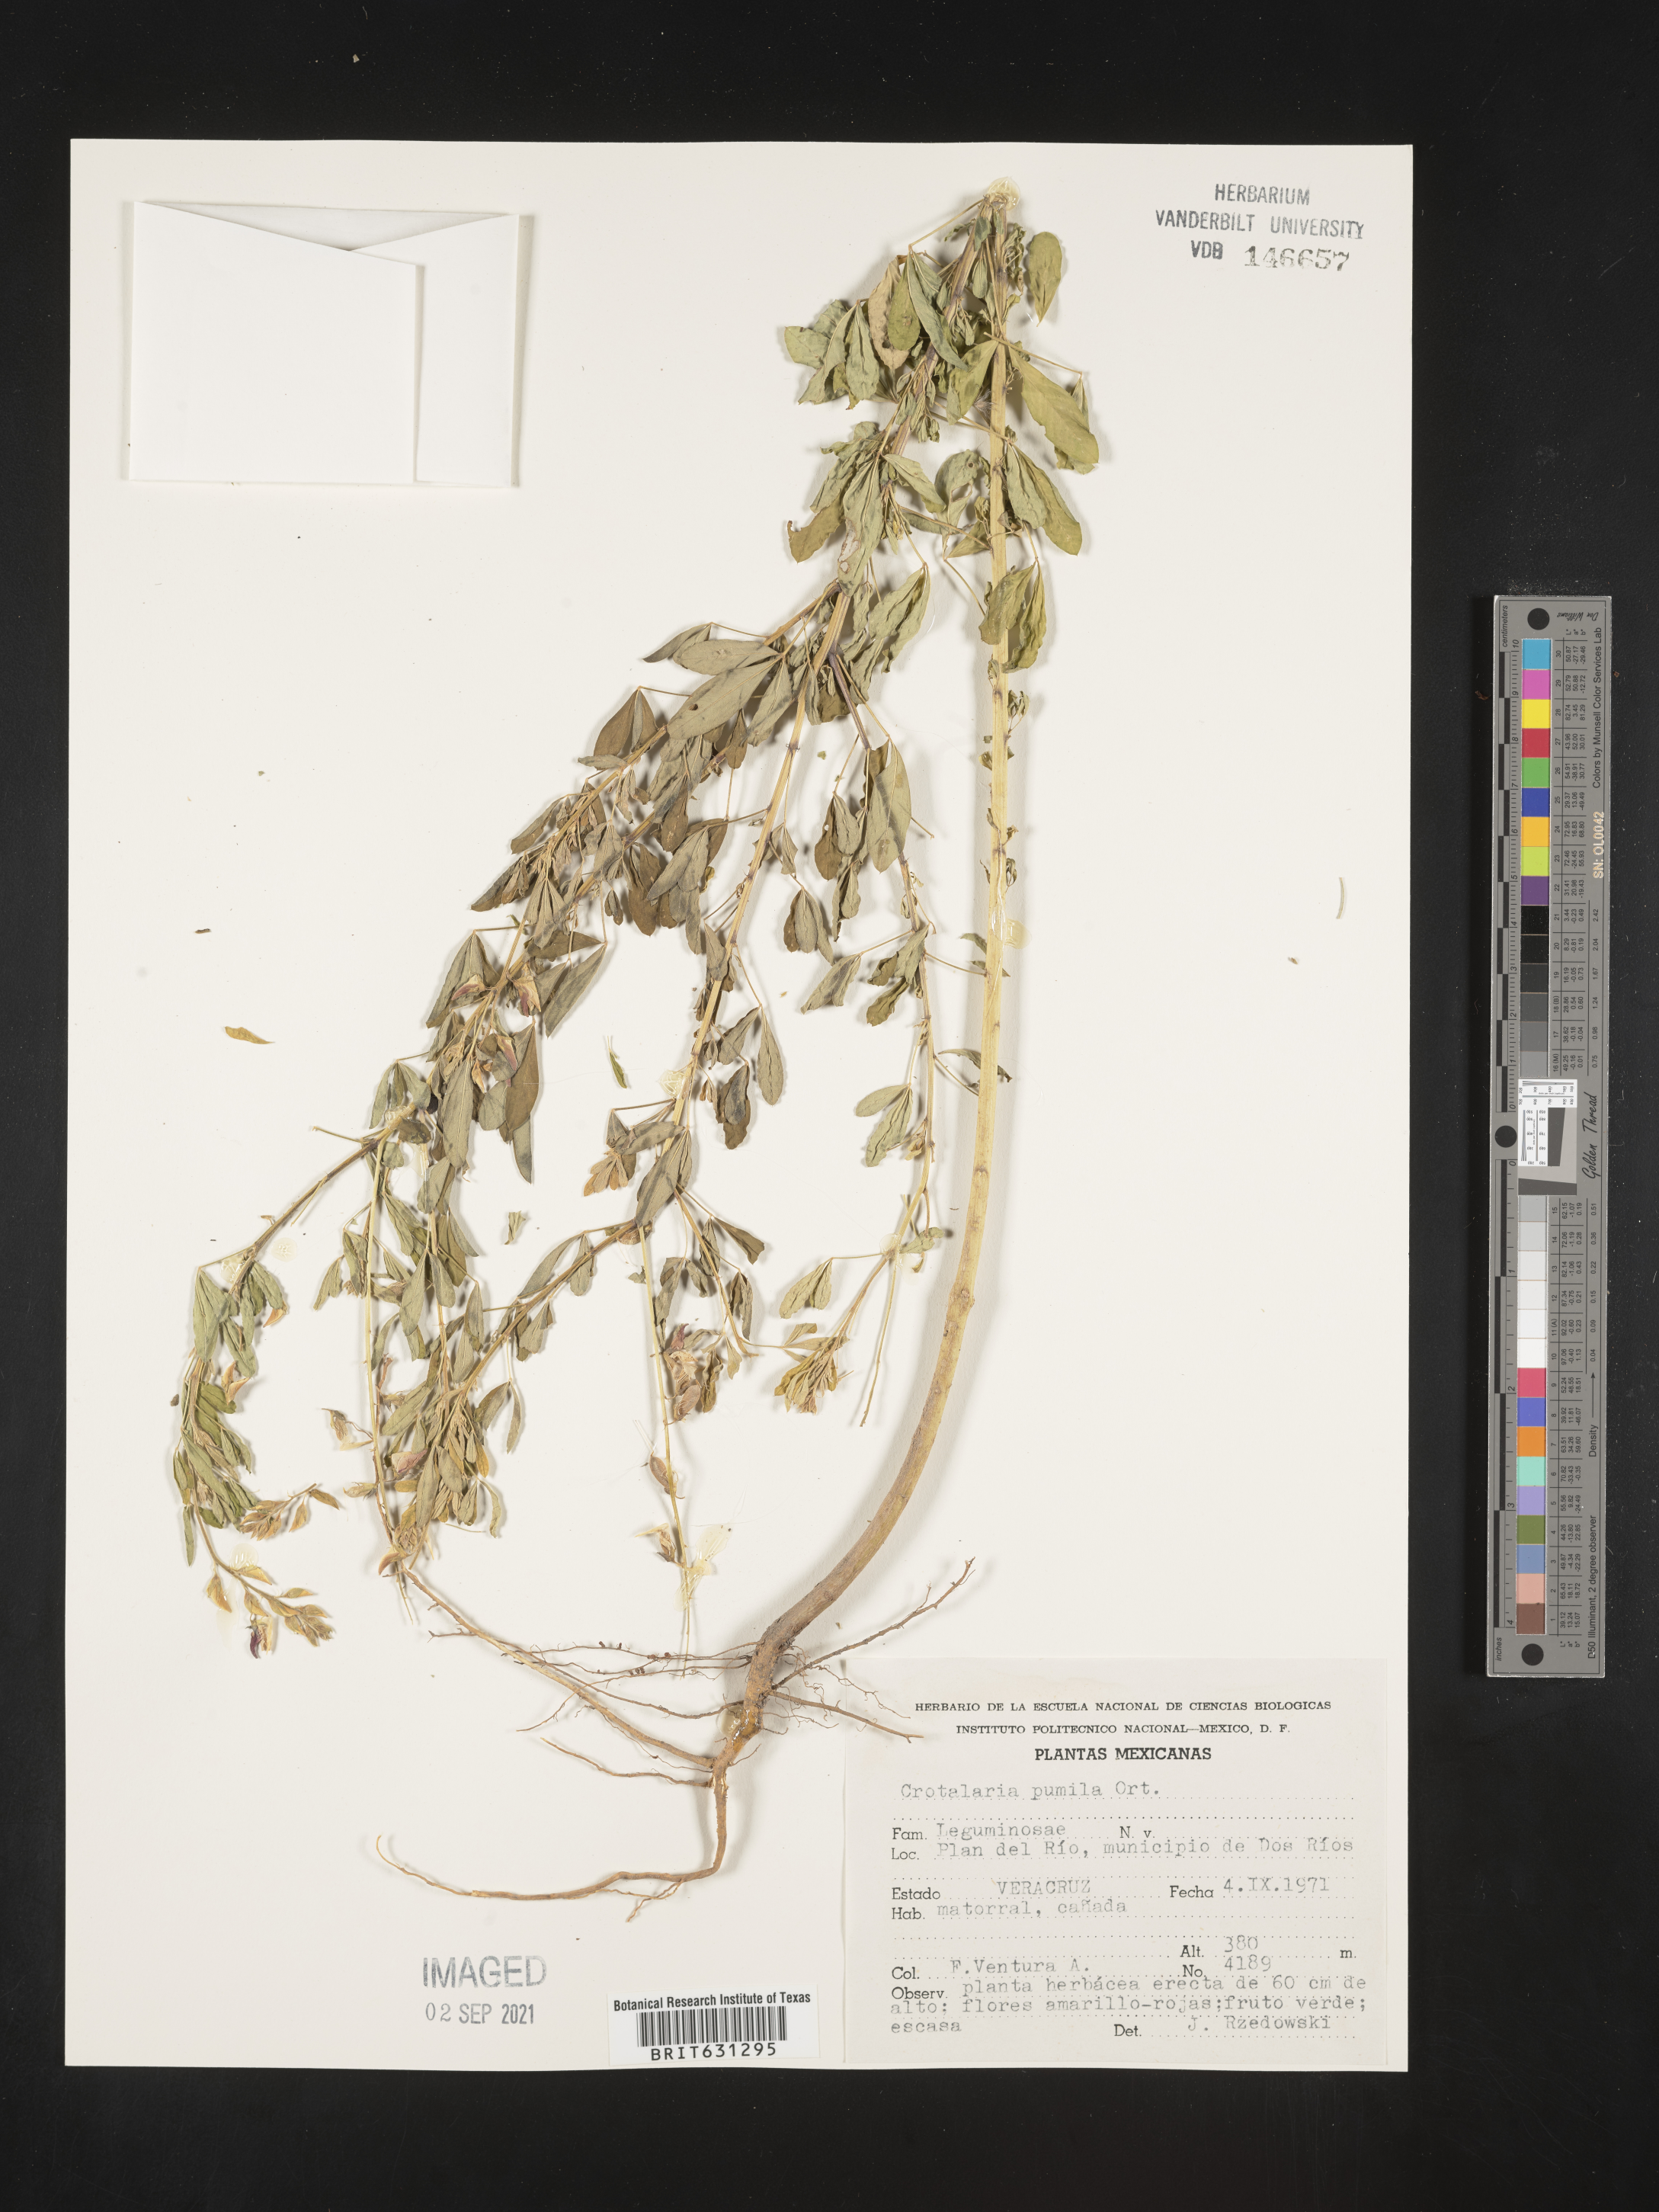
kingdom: Plantae
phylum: Tracheophyta
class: Magnoliopsida
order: Fabales
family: Fabaceae
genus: Crotalaria
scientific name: Crotalaria pumila
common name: Low rattlebox
